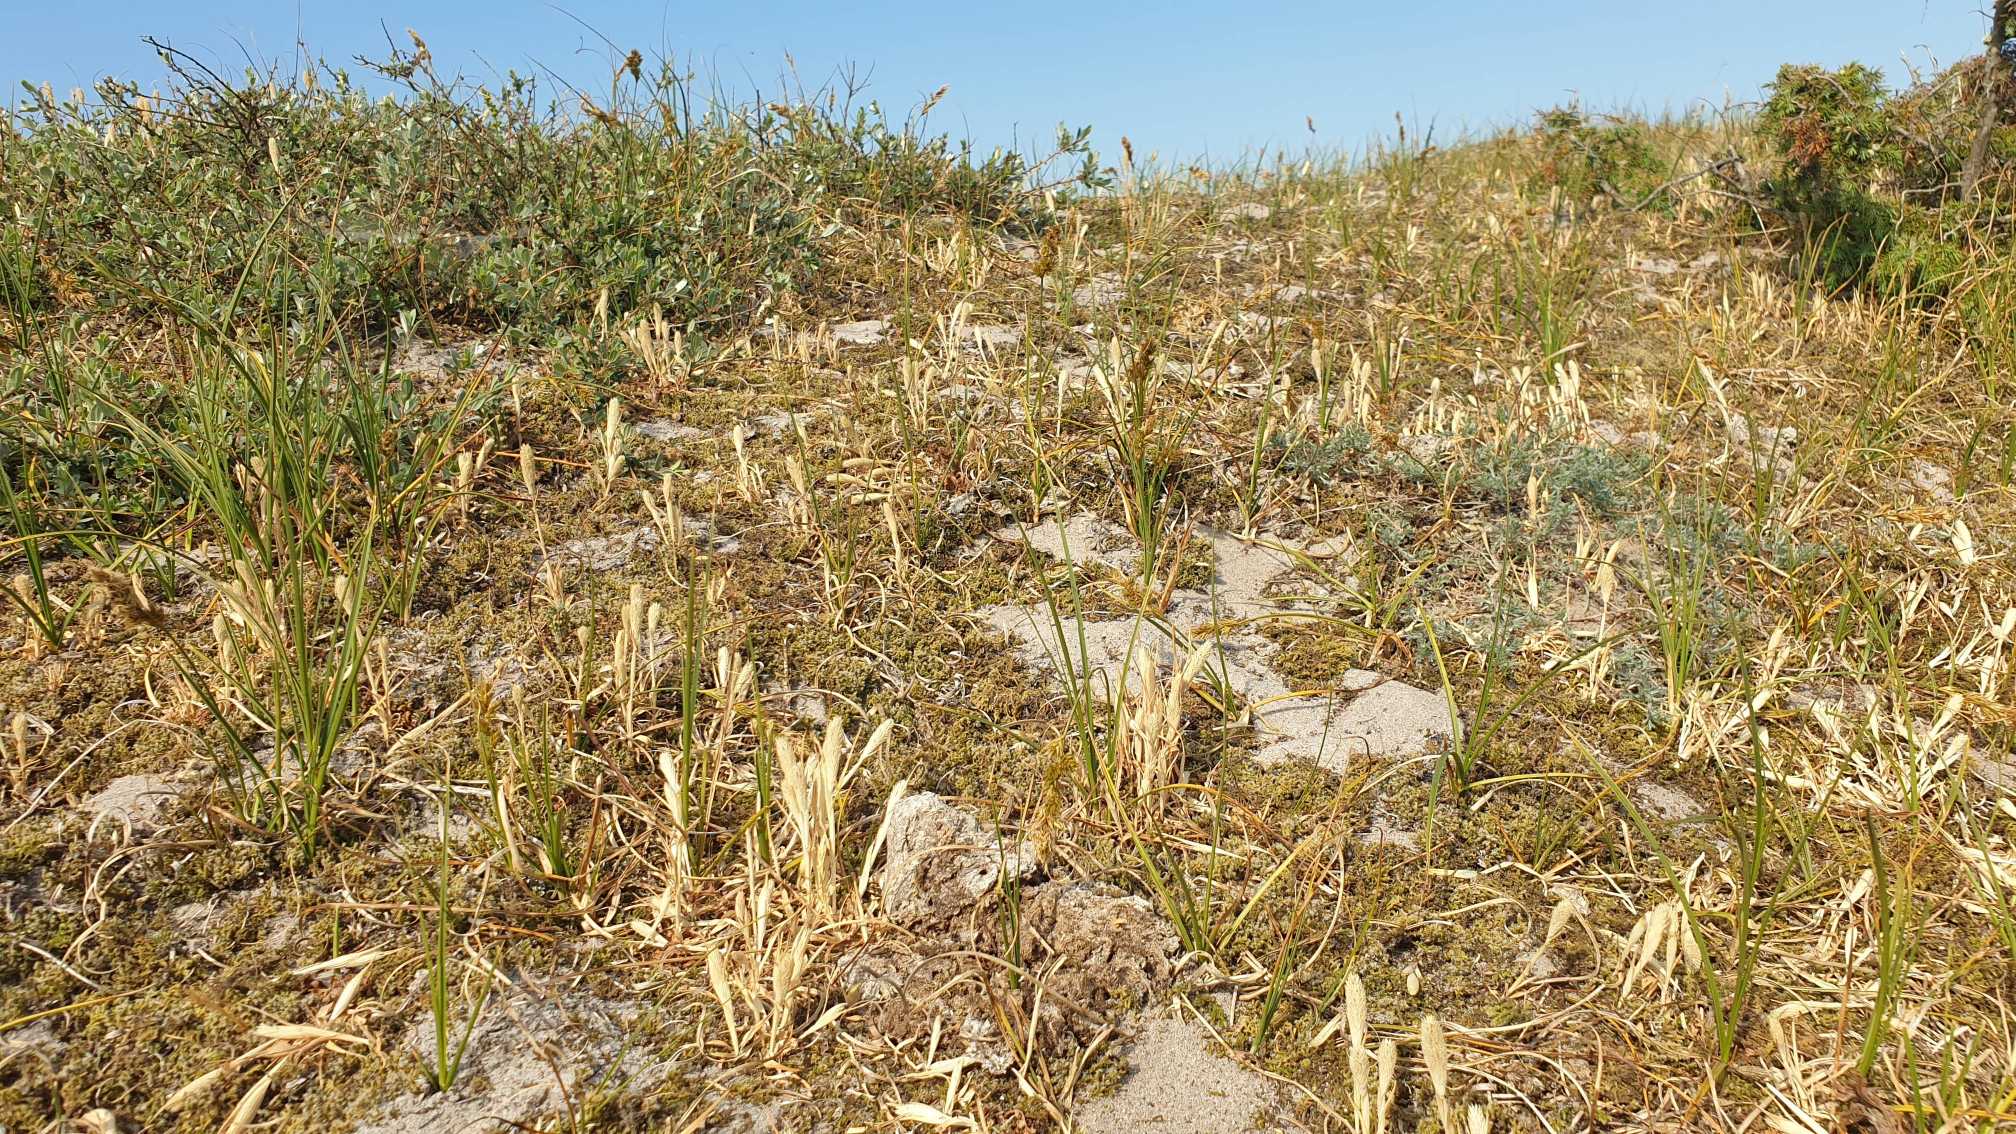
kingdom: Plantae
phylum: Tracheophyta
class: Liliopsida
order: Poales
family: Poaceae
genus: Phleum
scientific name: Phleum arenarium
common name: Sand-rottehale
